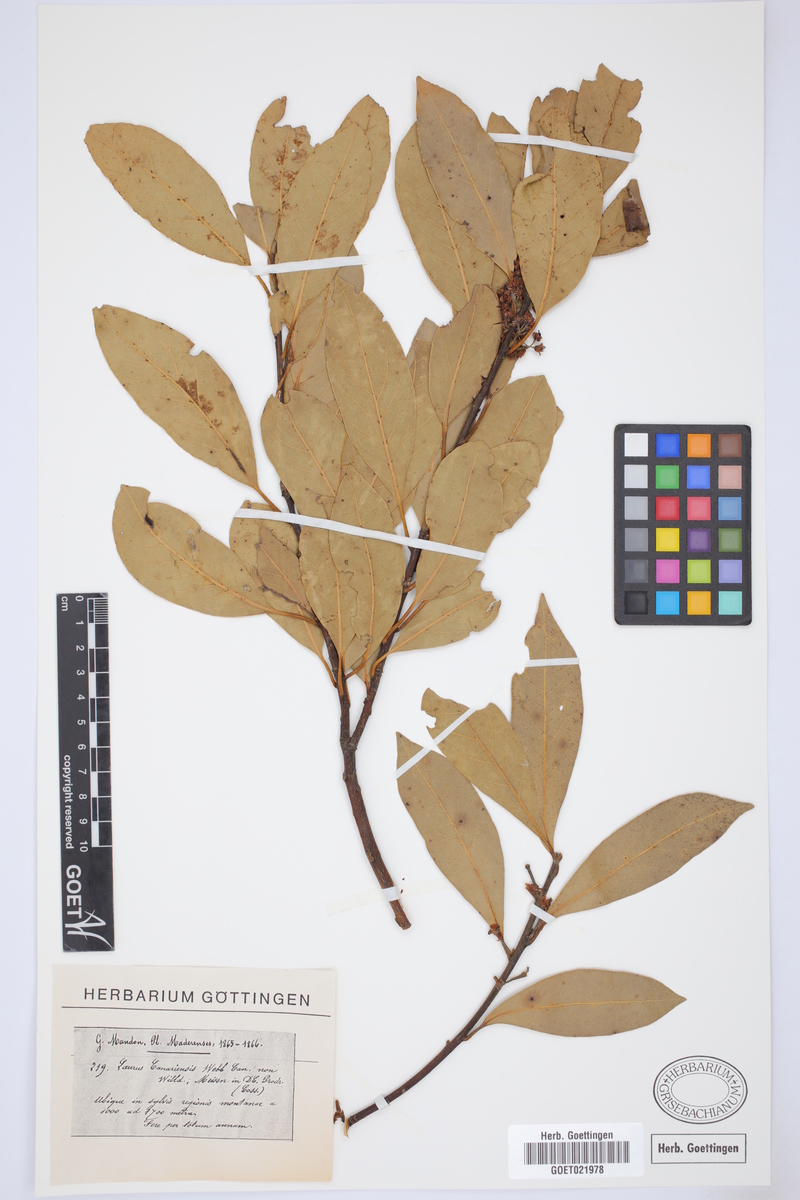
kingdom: Plantae
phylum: Tracheophyta
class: Magnoliopsida
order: Laurales
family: Lauraceae
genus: Laurus
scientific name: Laurus azorica
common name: Macaronesian laurel
